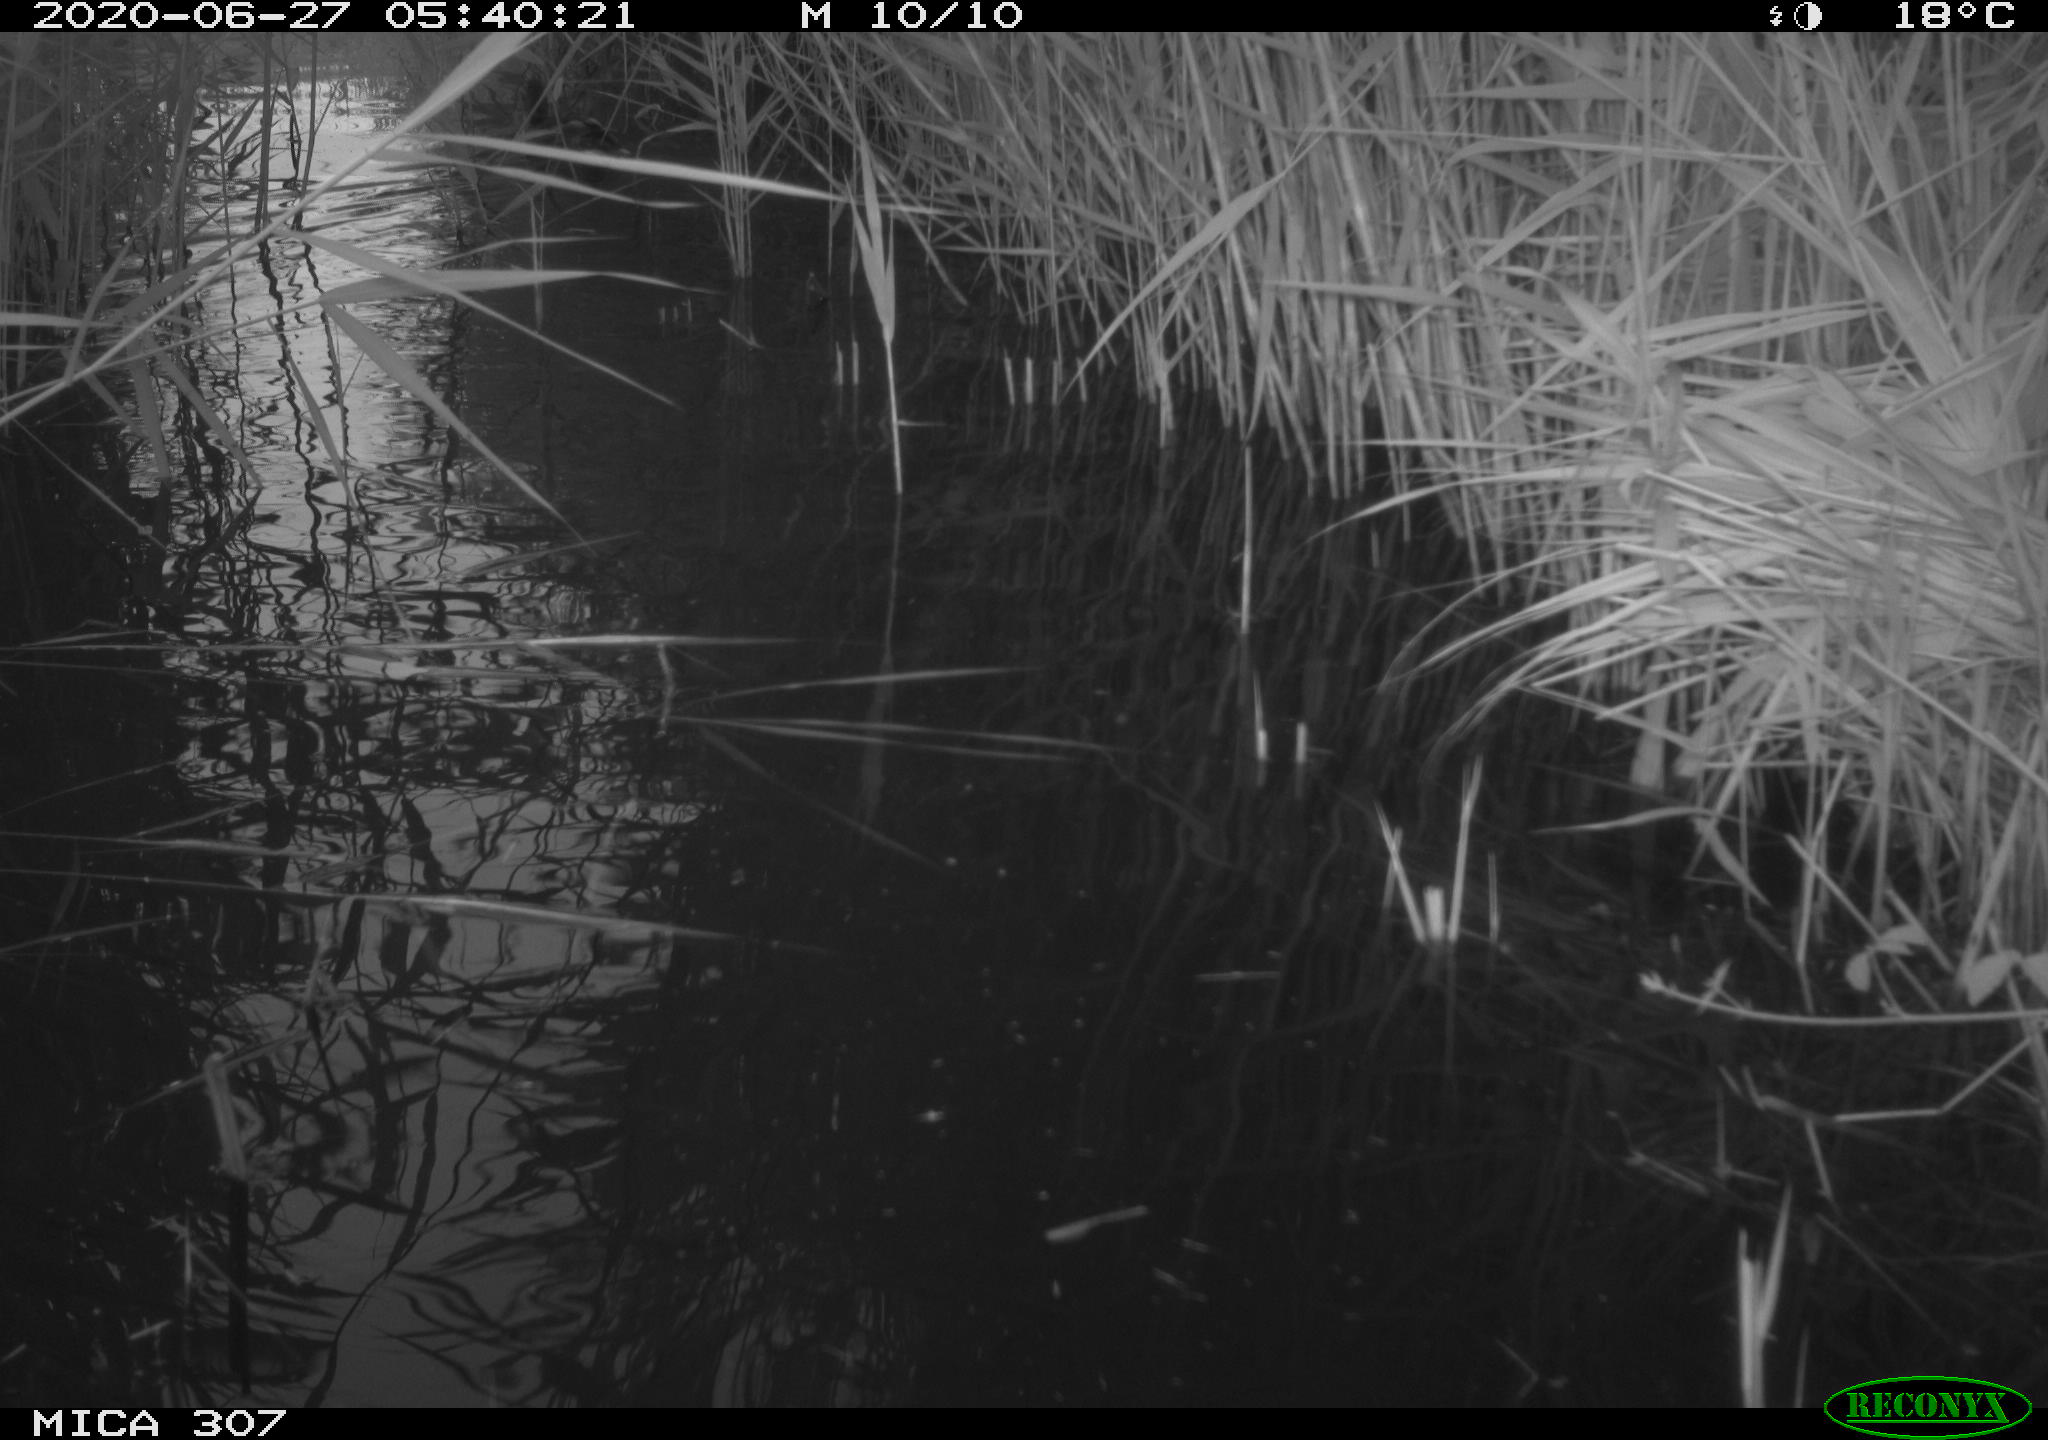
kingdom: Animalia
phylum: Chordata
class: Aves
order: Anseriformes
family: Anatidae
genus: Anas
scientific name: Anas platyrhynchos
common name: Mallard
